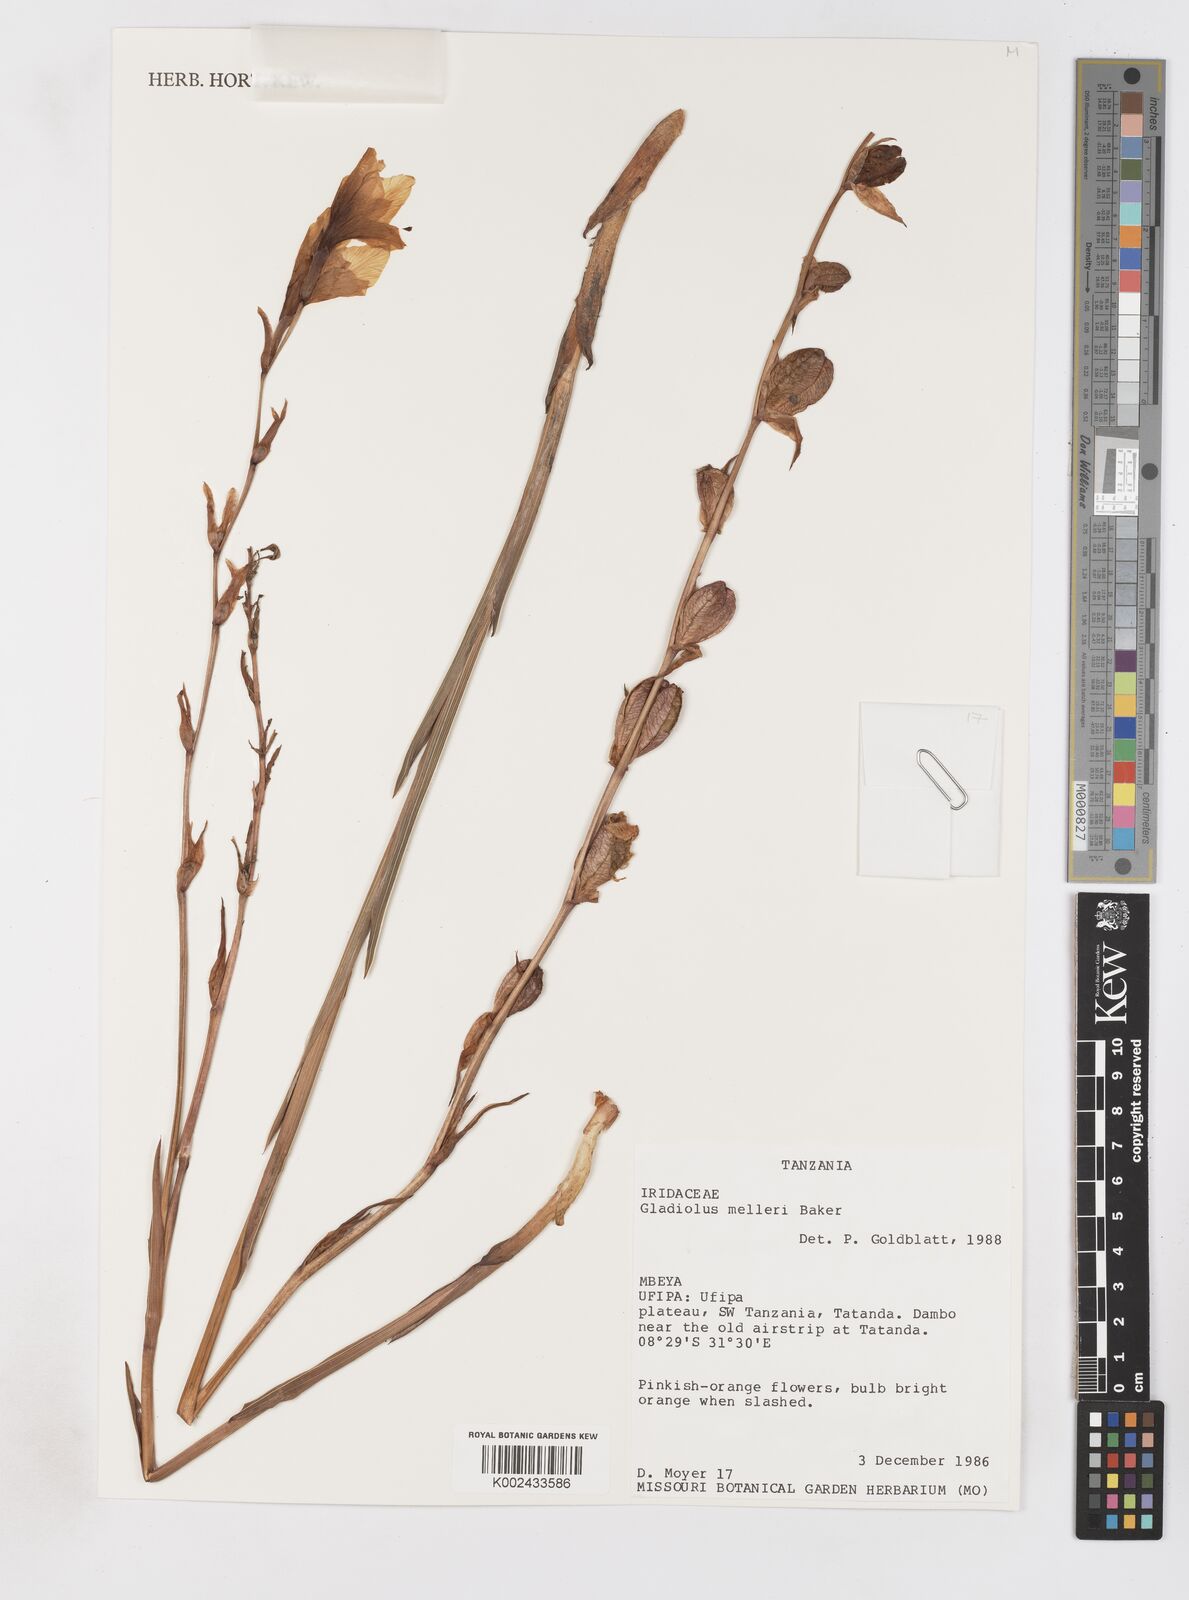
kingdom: Plantae
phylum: Tracheophyta
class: Liliopsida
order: Asparagales
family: Iridaceae
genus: Gladiolus
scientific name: Gladiolus melleri
